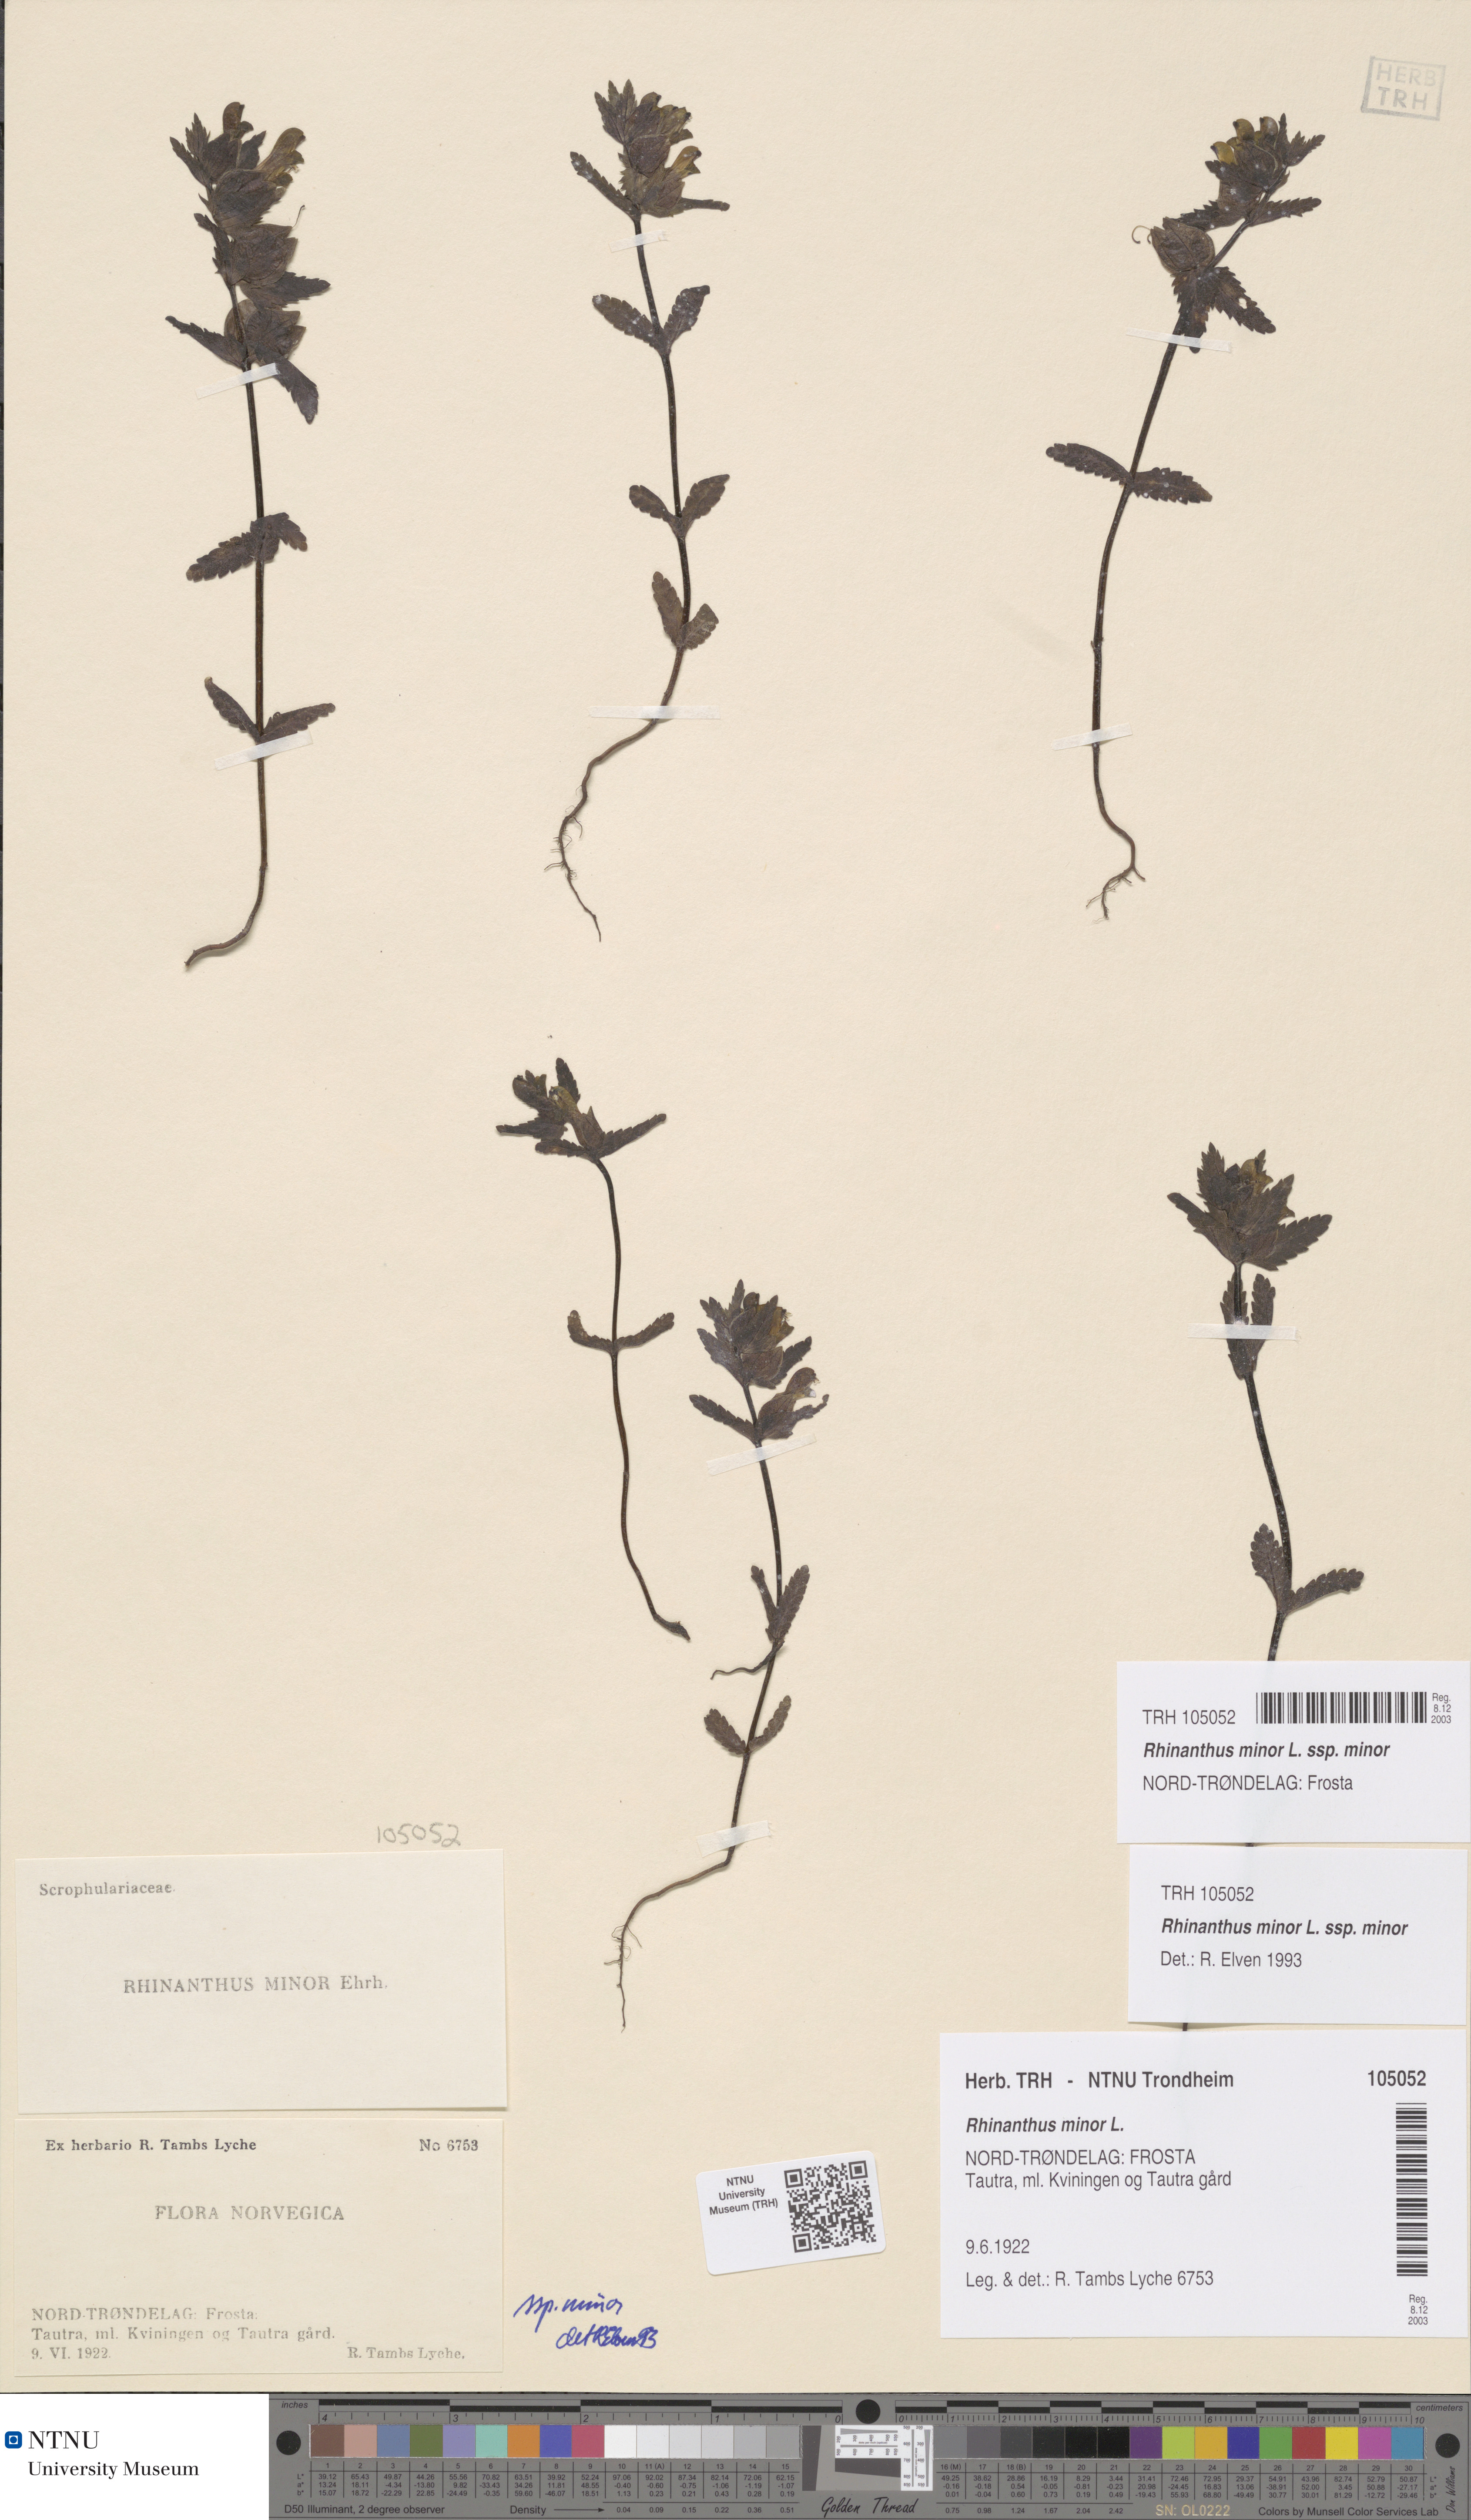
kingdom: Plantae
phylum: Tracheophyta
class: Magnoliopsida
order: Lamiales
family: Orobanchaceae
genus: Rhinanthus
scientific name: Rhinanthus minor
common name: Yellow-rattle
